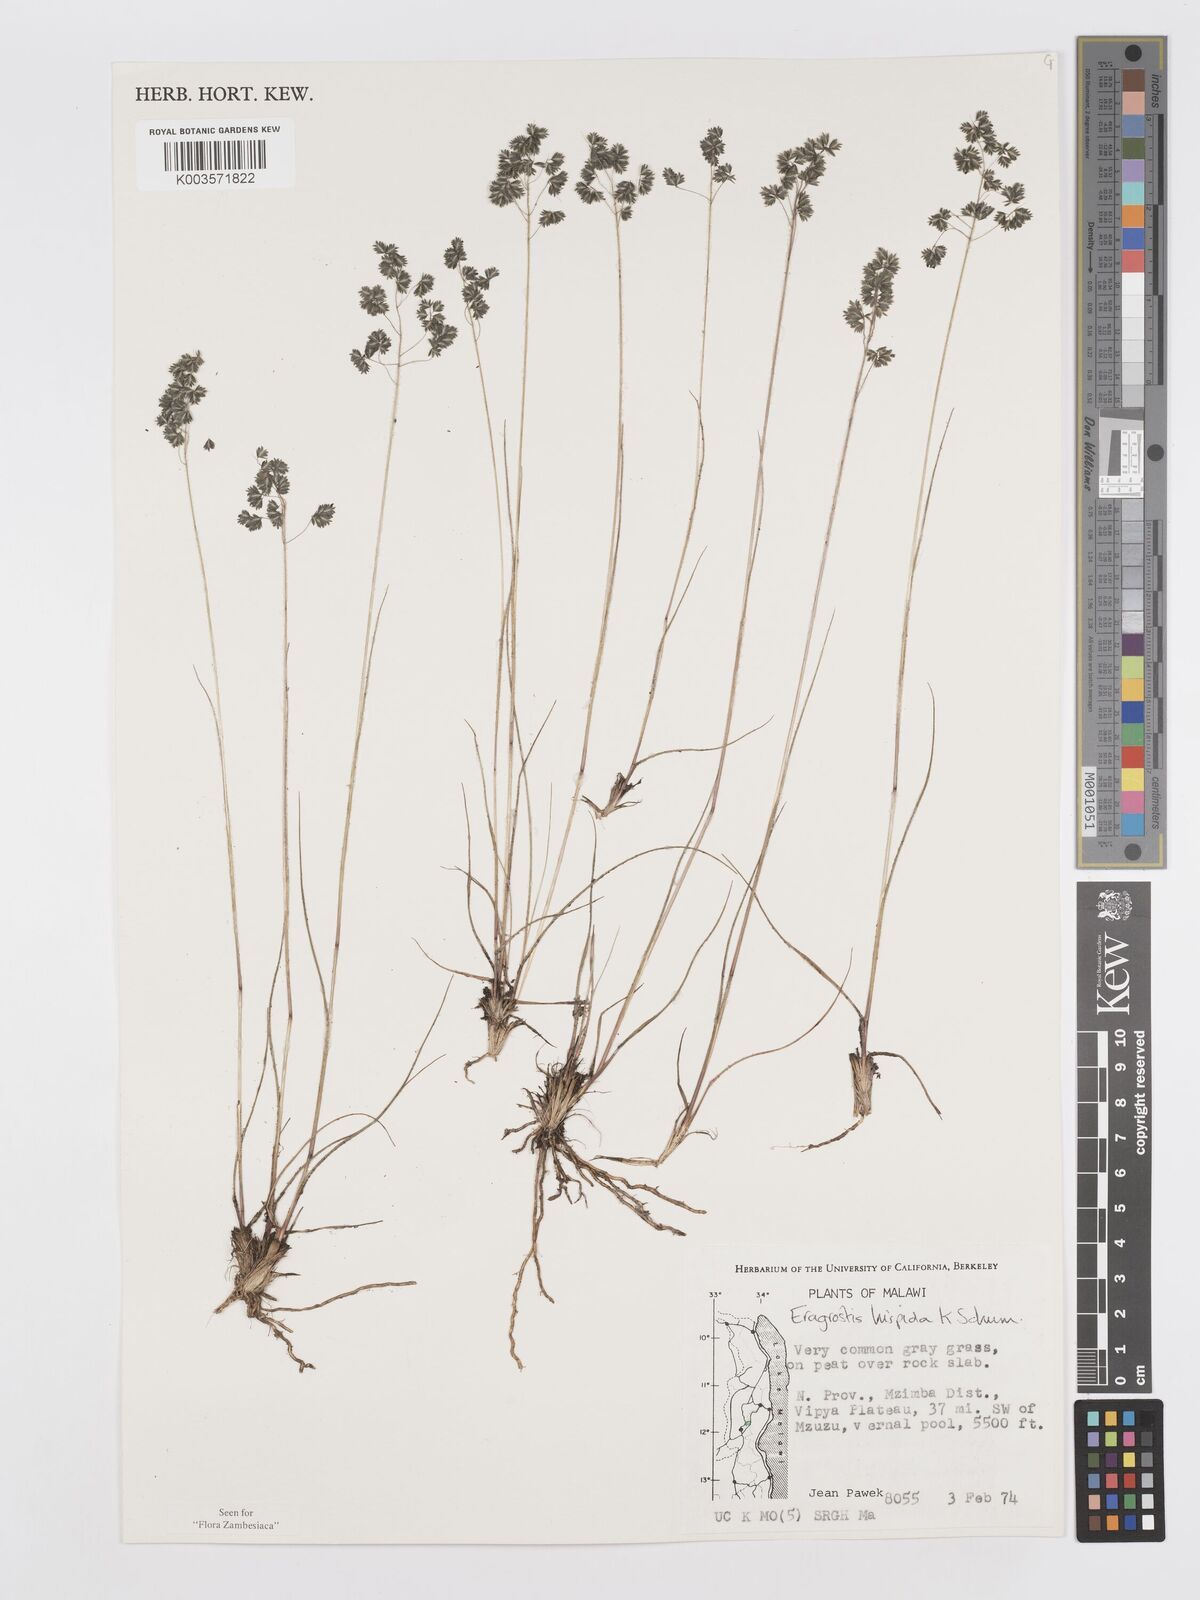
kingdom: Plantae
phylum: Tracheophyta
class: Liliopsida
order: Poales
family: Poaceae
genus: Eragrostis
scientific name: Eragrostis hispida
